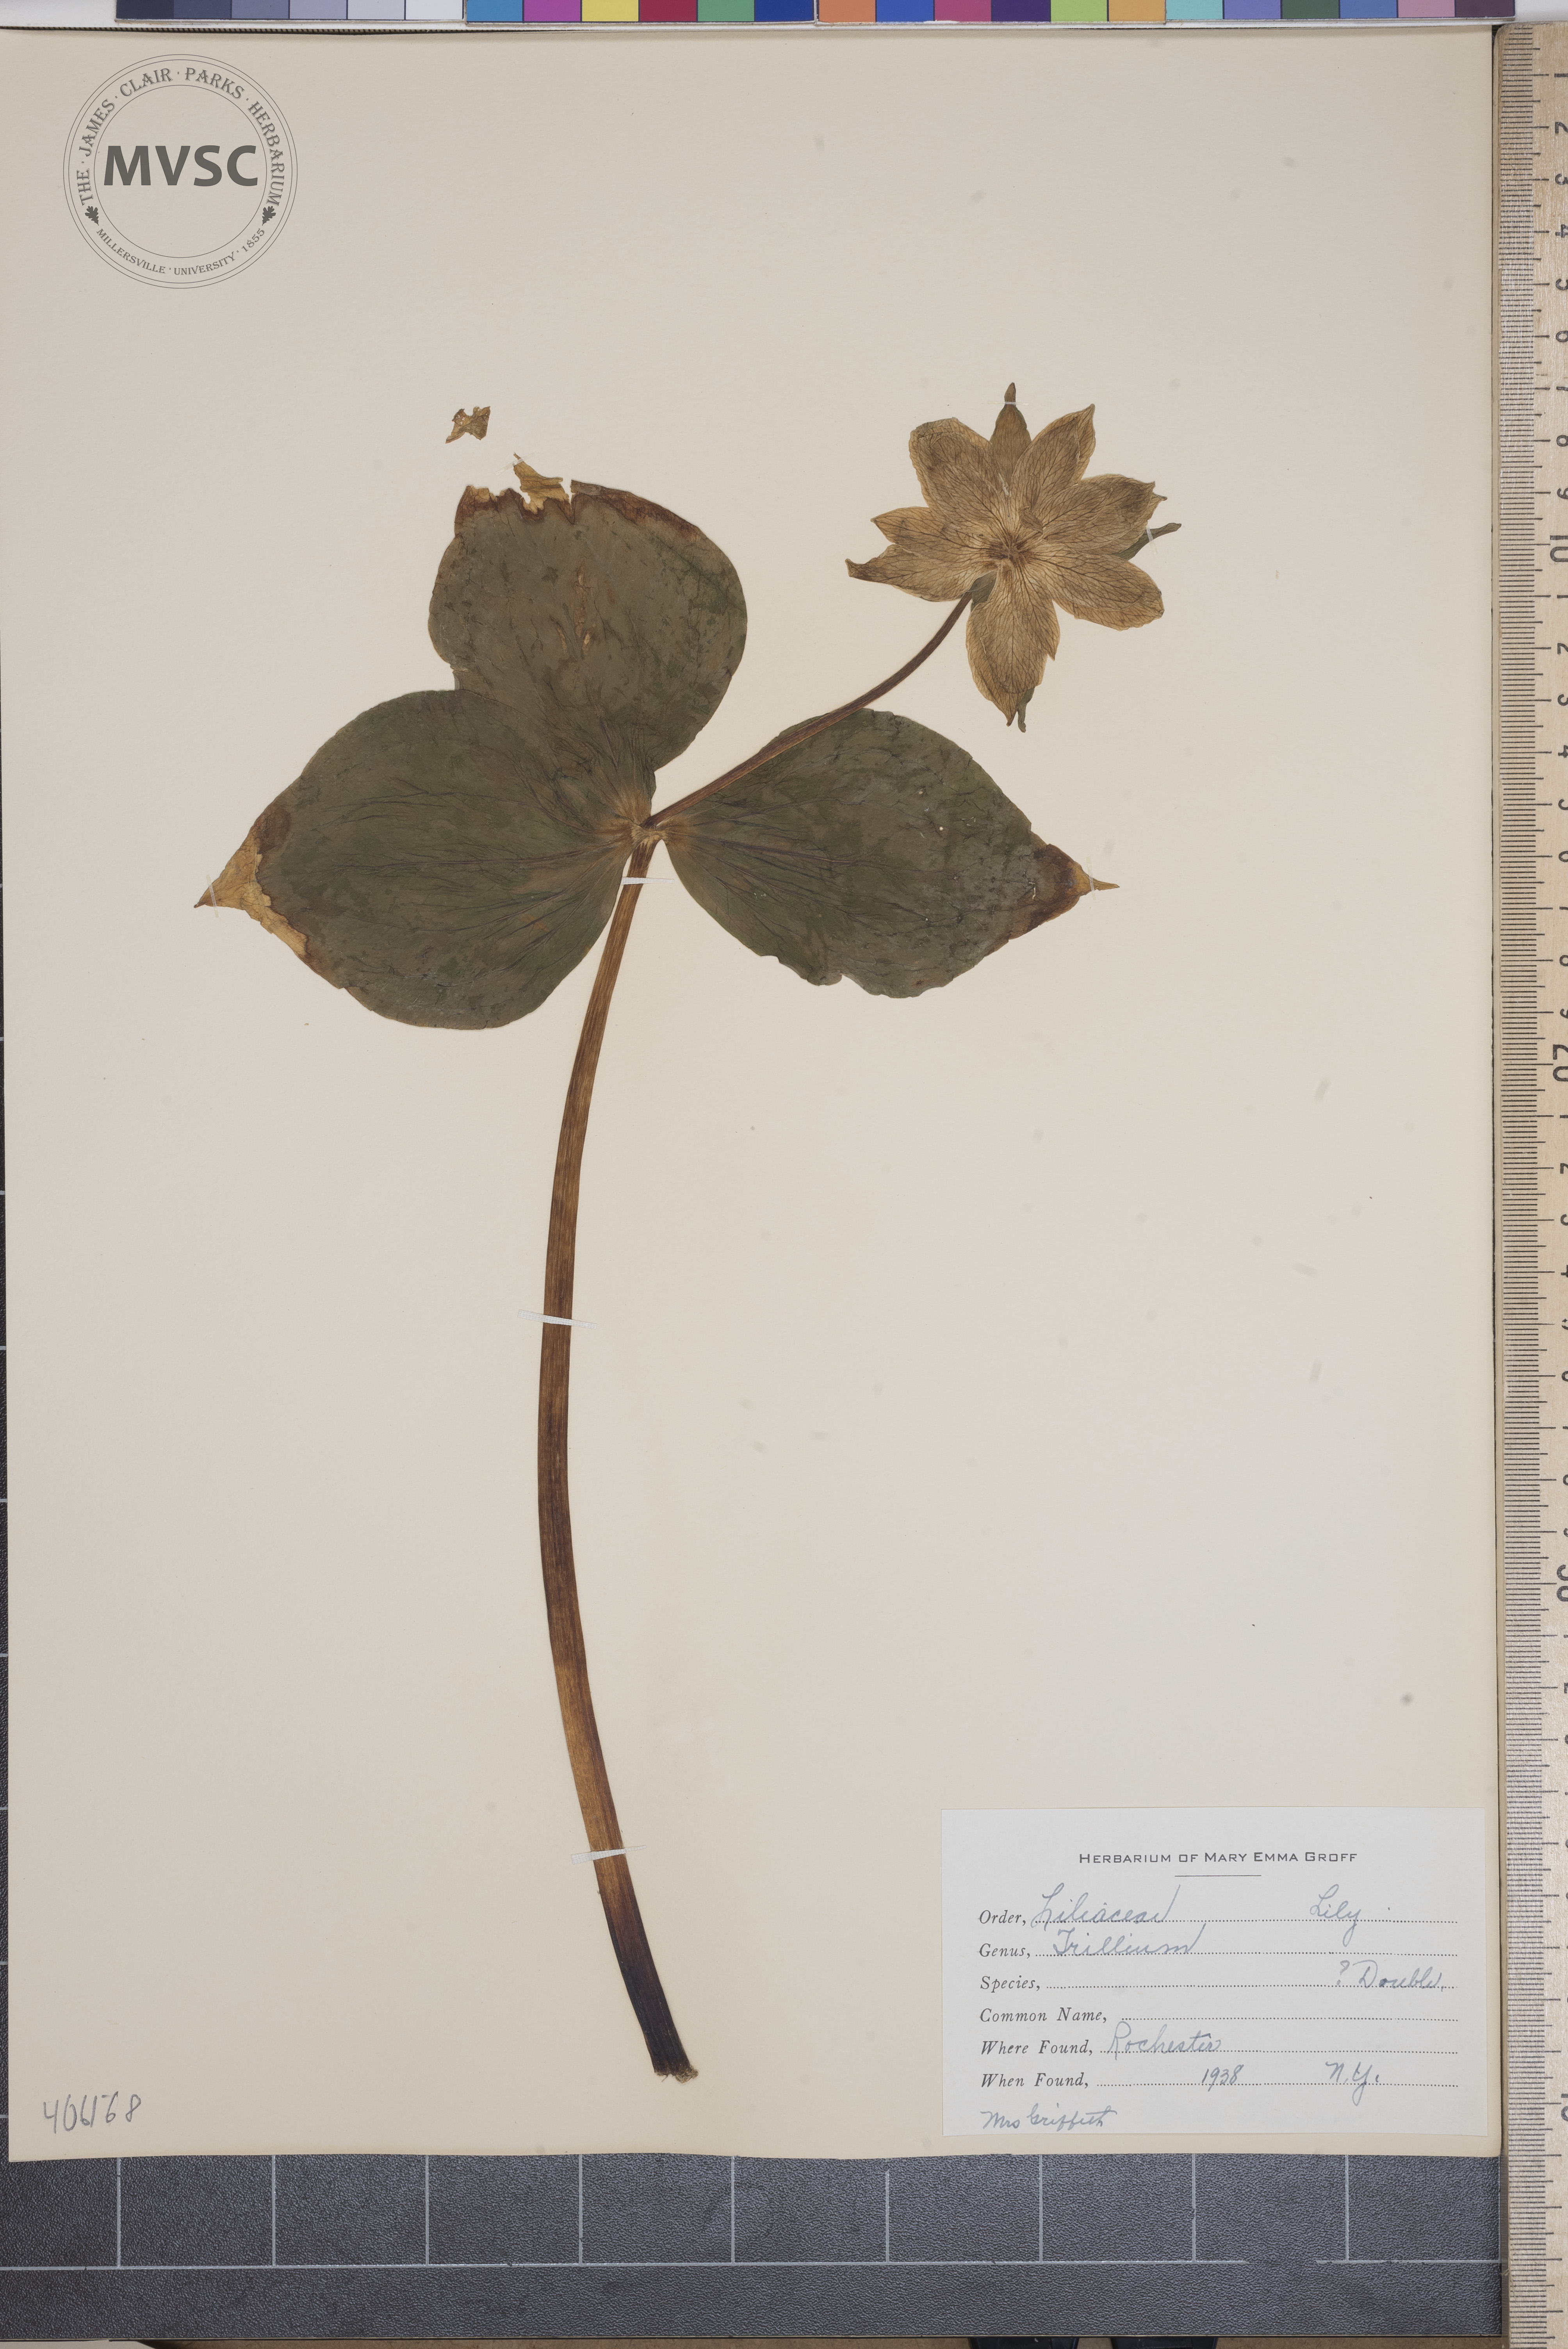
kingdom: Plantae
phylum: Tracheophyta
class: Liliopsida
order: Liliales
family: Melanthiaceae
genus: Trillium
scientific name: Trillium
